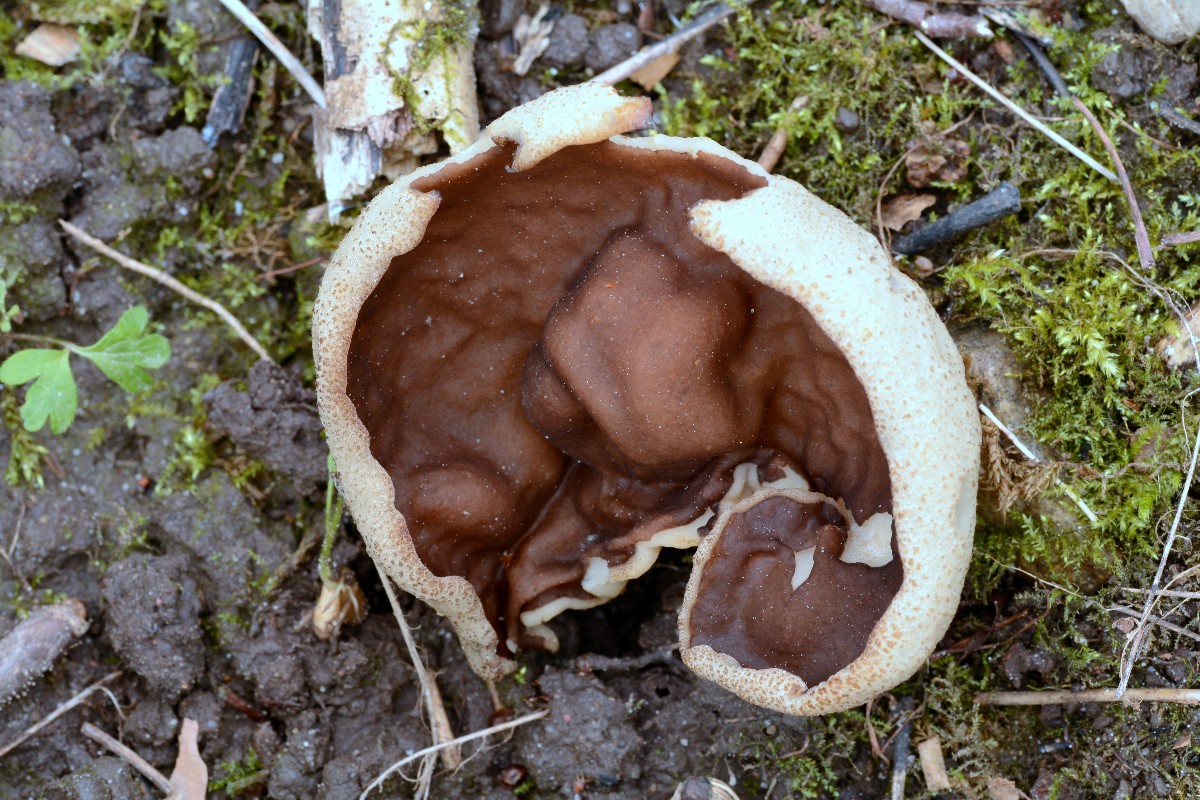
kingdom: Fungi
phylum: Ascomycota
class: Pezizomycetes
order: Pezizales
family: Morchellaceae
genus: Disciotis
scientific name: Disciotis venosa
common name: klor-bægermorkel
